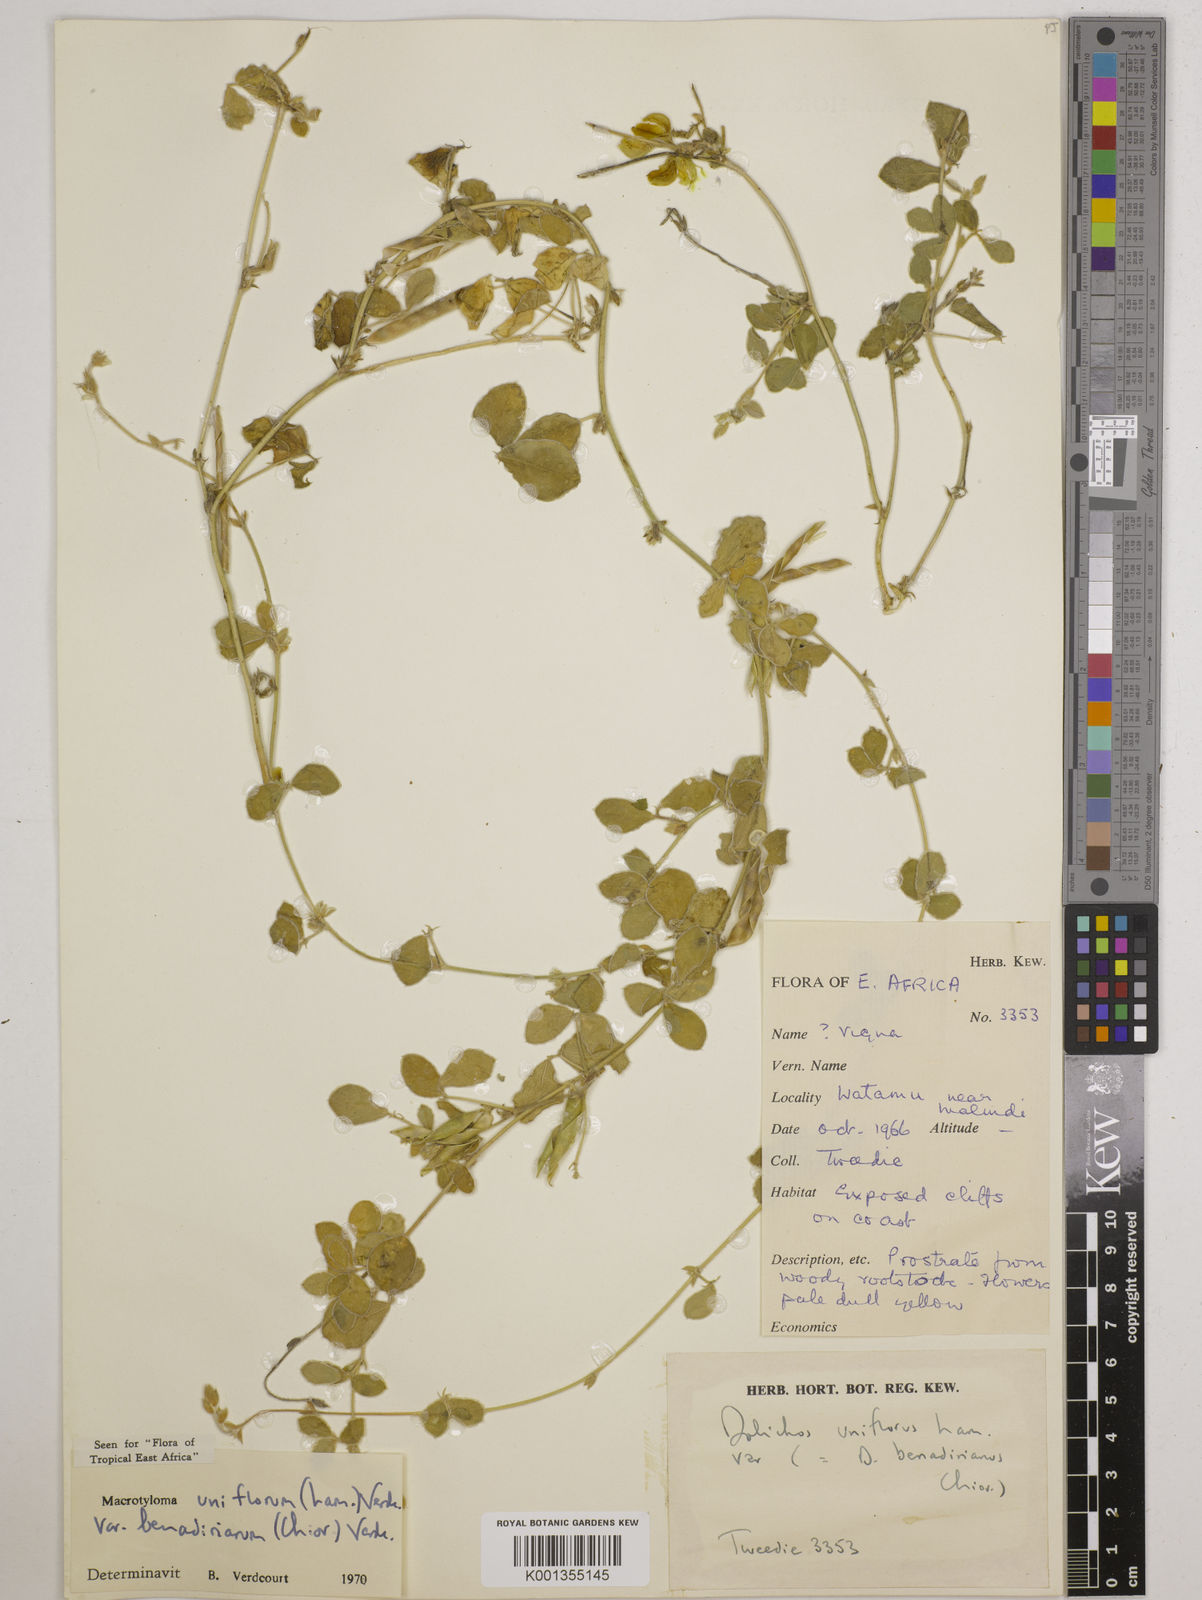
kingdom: Plantae
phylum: Tracheophyta
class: Magnoliopsida
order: Fabales
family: Fabaceae
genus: Macrotyloma
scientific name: Macrotyloma
